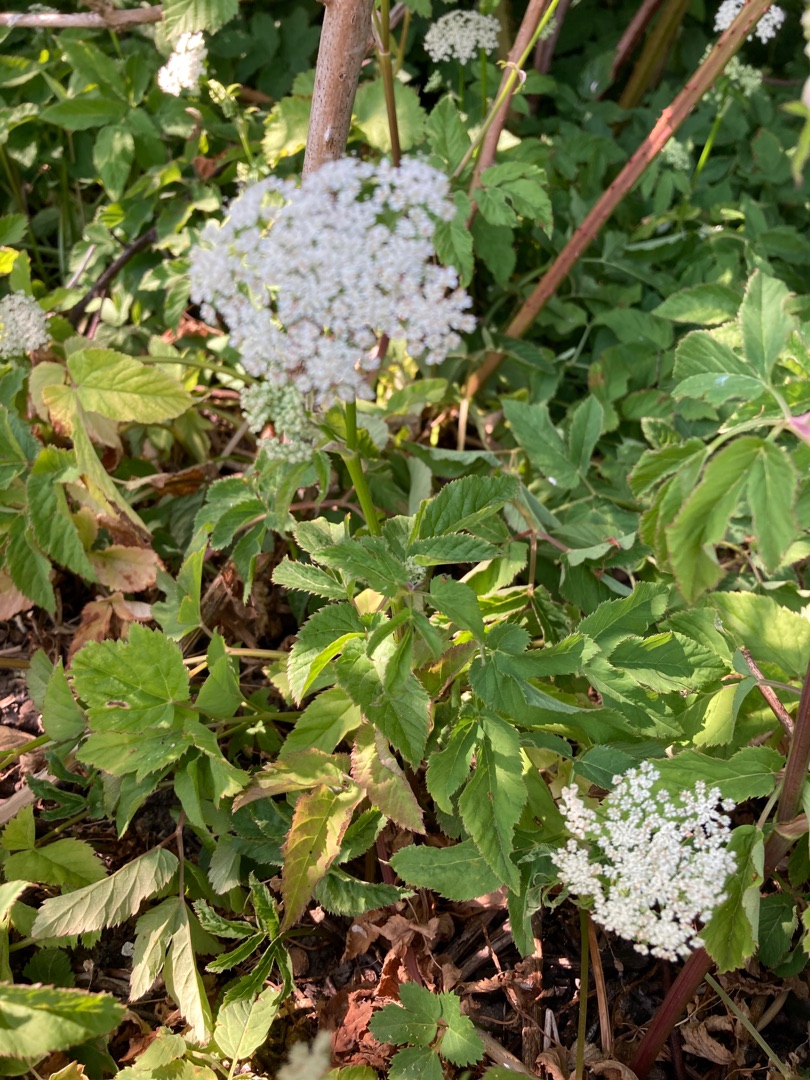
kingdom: Plantae
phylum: Tracheophyta
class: Magnoliopsida
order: Apiales
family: Apiaceae
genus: Aegopodium
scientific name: Aegopodium podagraria
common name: Skvalderkål
